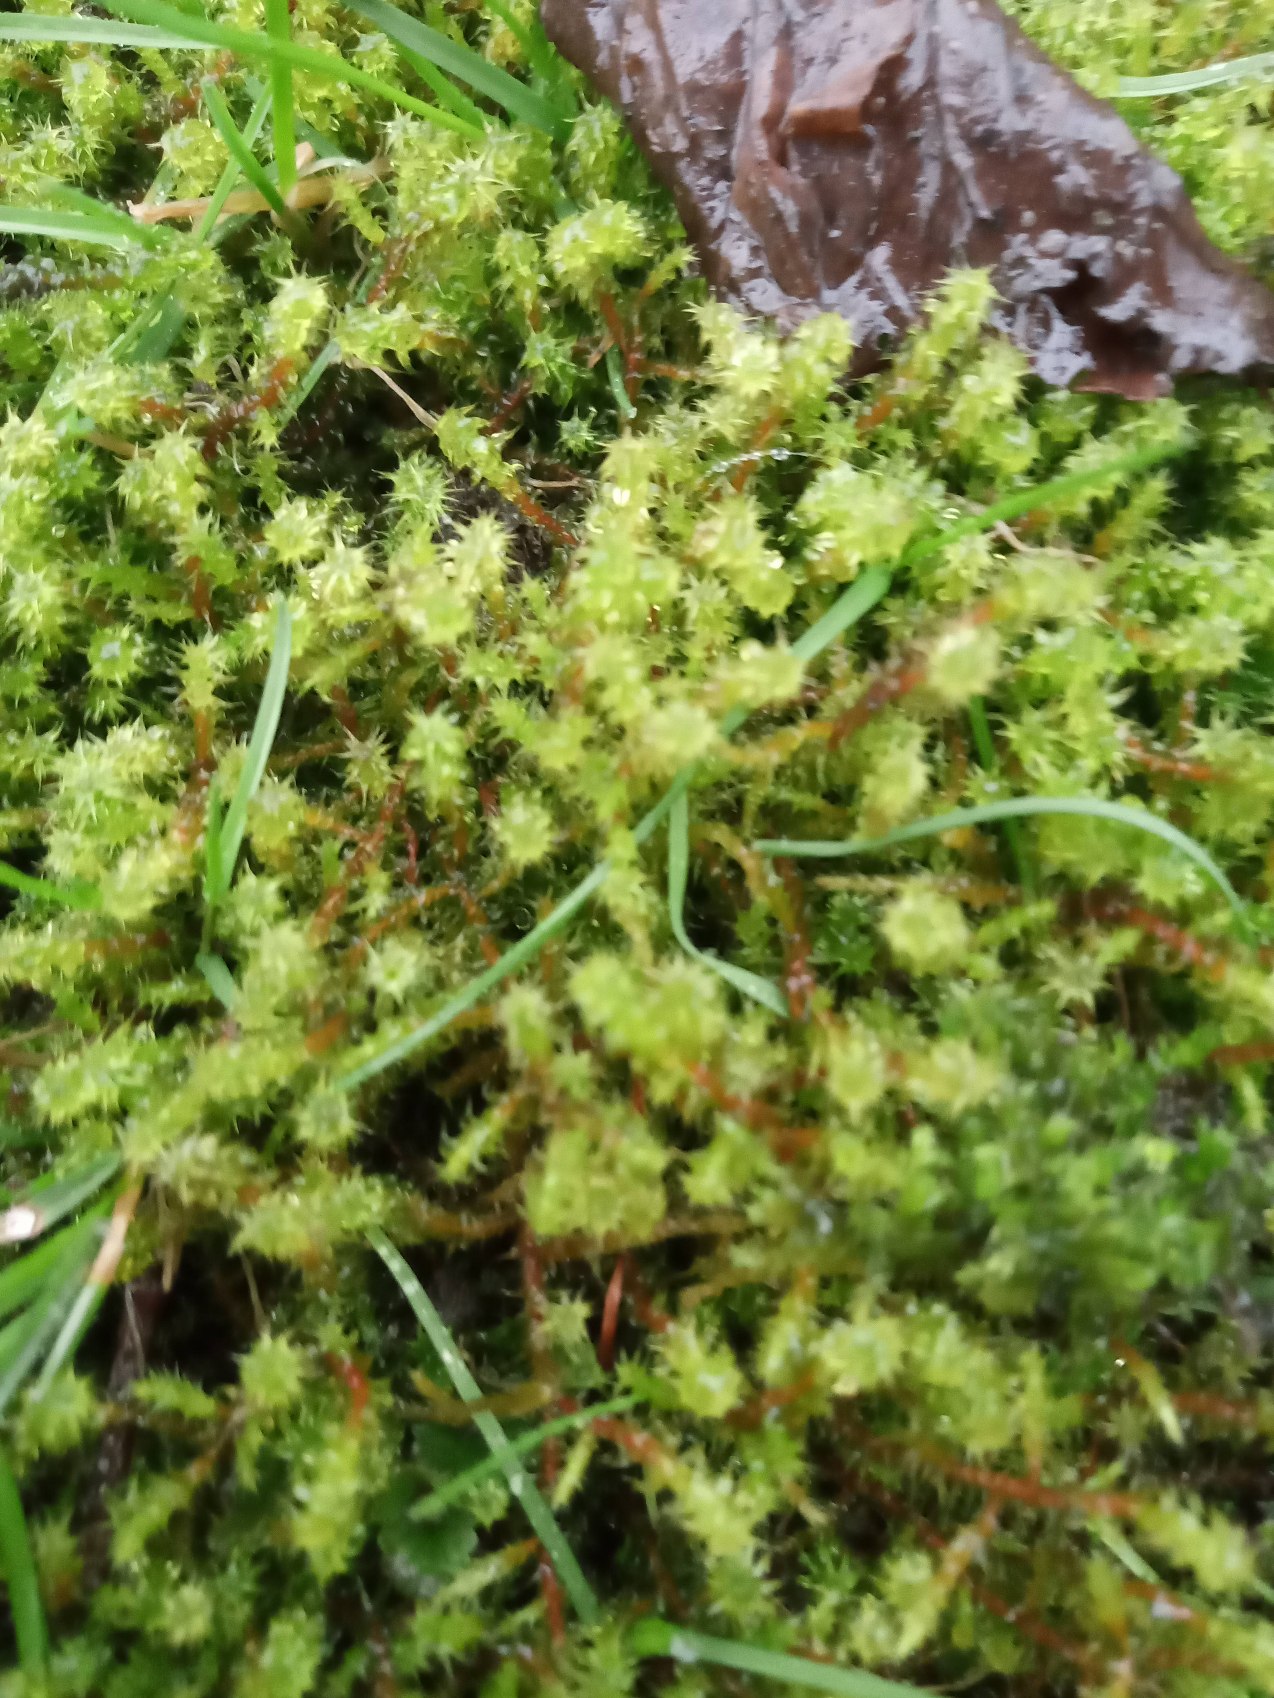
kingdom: Plantae
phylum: Bryophyta
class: Bryopsida
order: Hypnales
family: Hylocomiaceae
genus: Rhytidiadelphus
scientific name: Rhytidiadelphus squarrosus
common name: Plæne-kransemos
